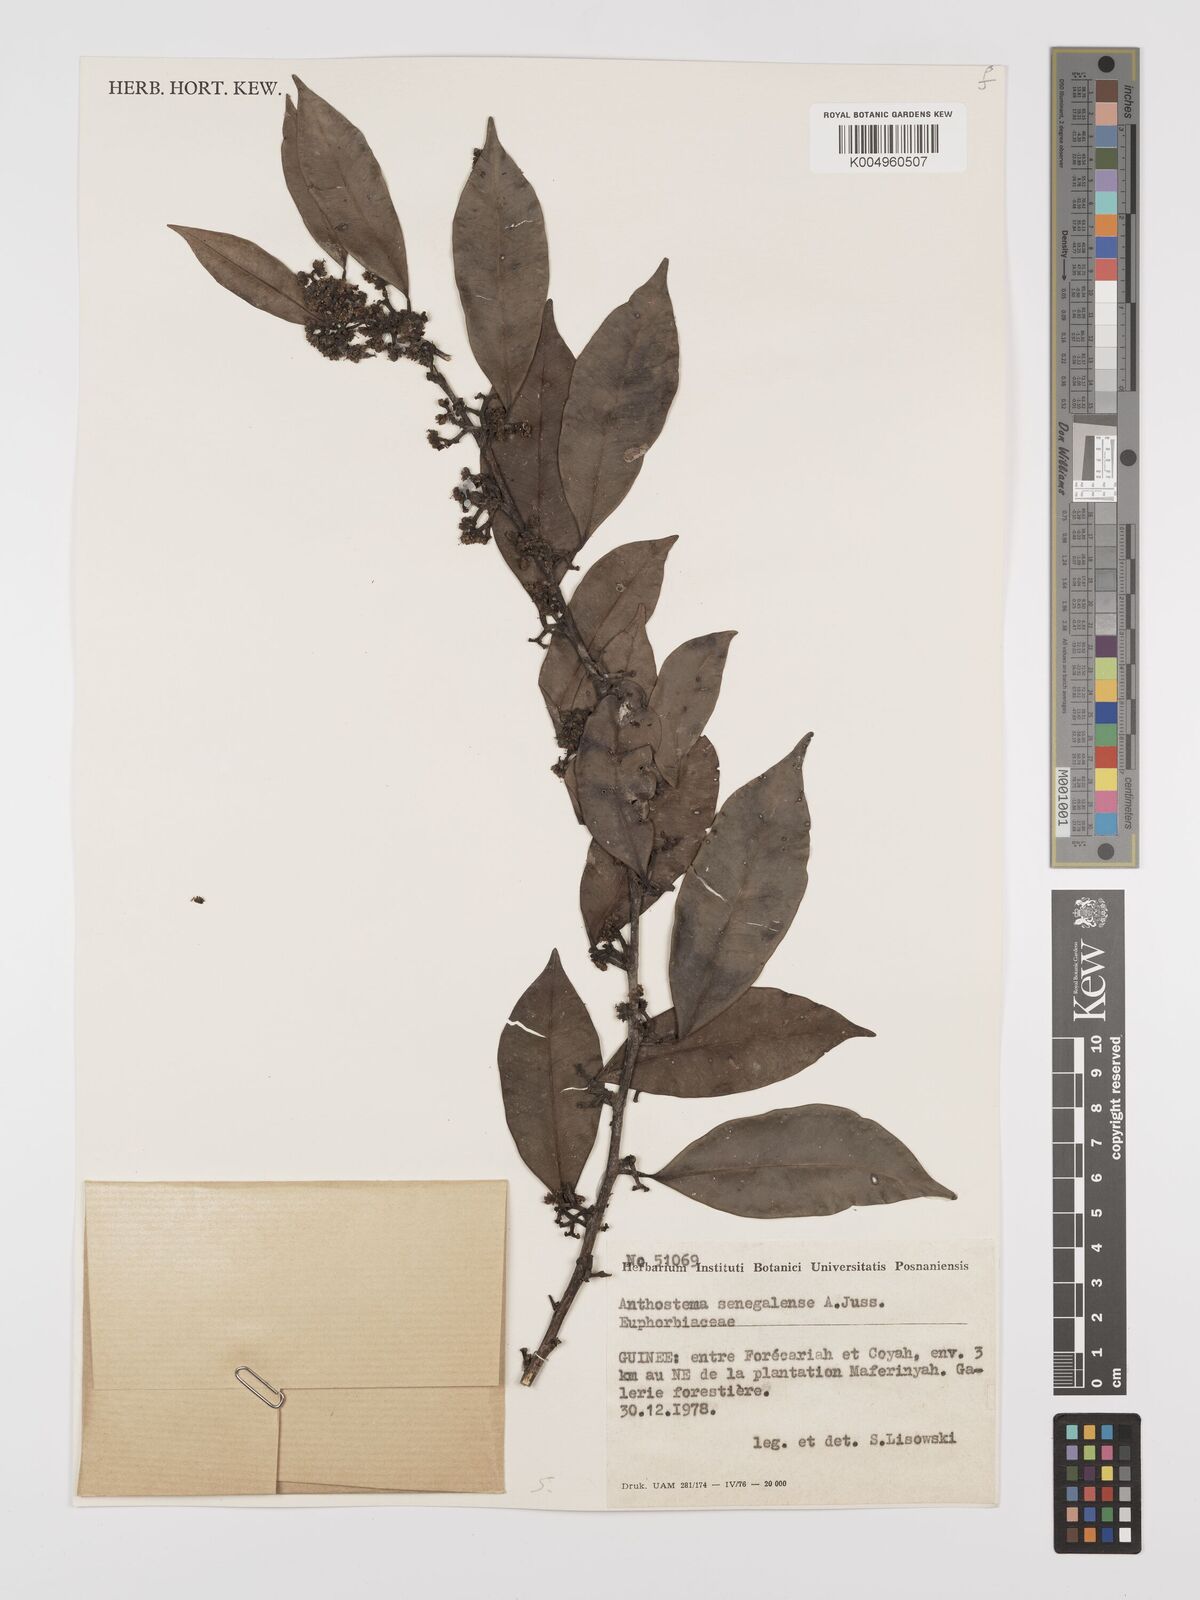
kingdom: Plantae
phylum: Tracheophyta
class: Magnoliopsida
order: Malpighiales
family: Euphorbiaceae
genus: Anthostema
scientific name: Anthostema senegalense
